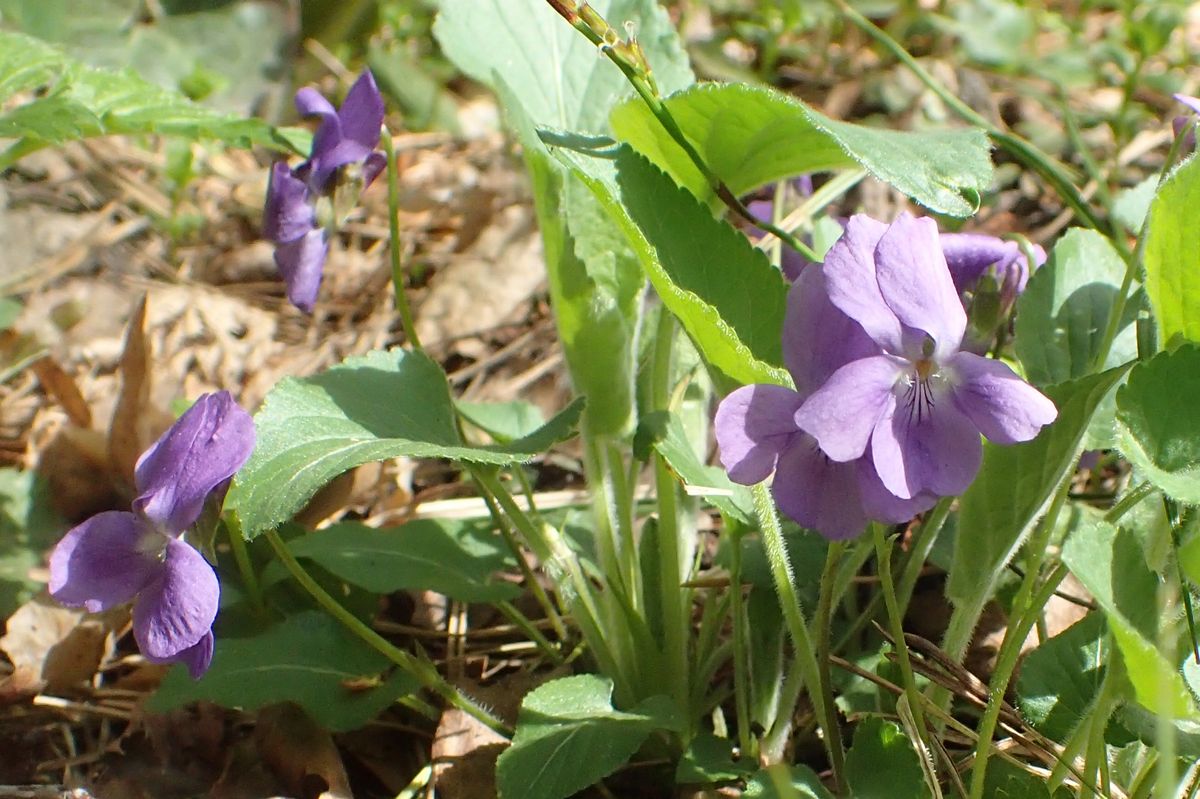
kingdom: Plantae
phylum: Tracheophyta
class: Magnoliopsida
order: Malpighiales
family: Violaceae
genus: Viola
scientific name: Viola collina
